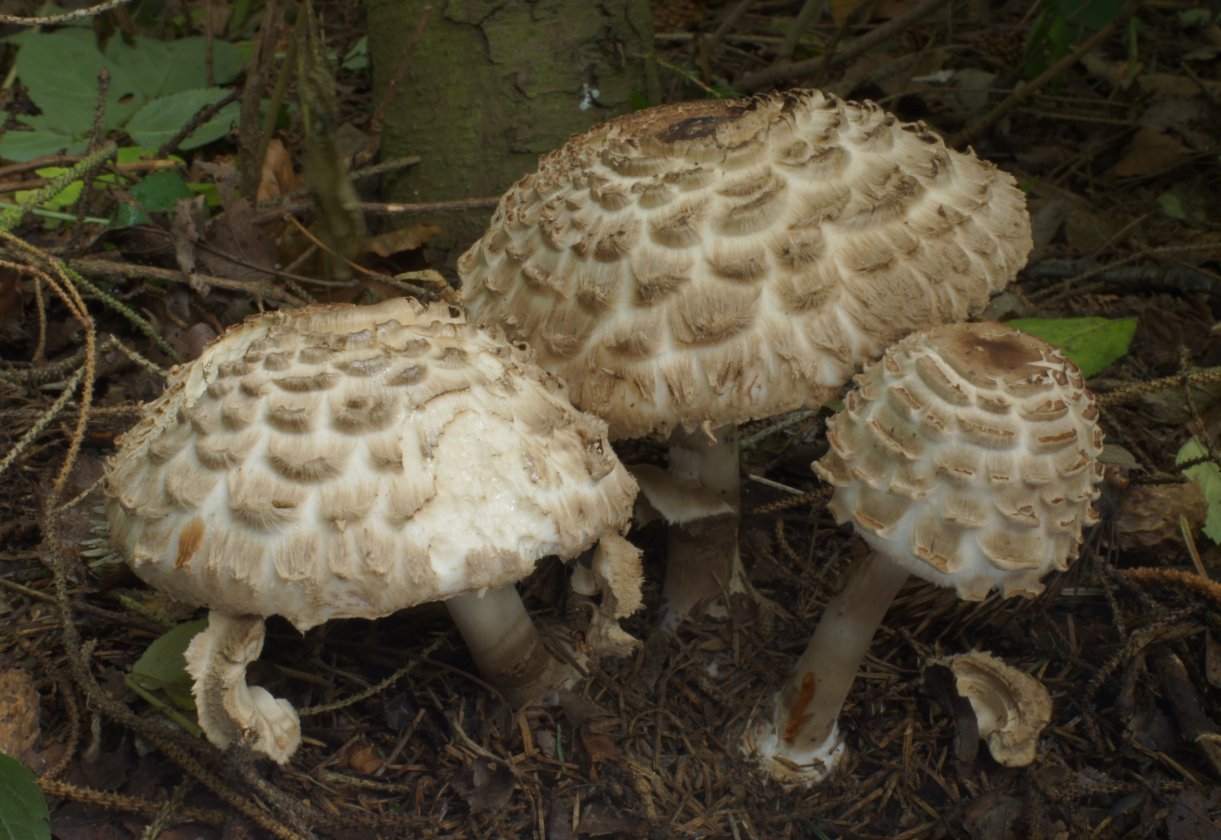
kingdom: Fungi
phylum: Basidiomycota
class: Agaricomycetes
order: Agaricales
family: Agaricaceae
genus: Chlorophyllum
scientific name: Chlorophyllum olivieri
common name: almindelig rabarberhat
